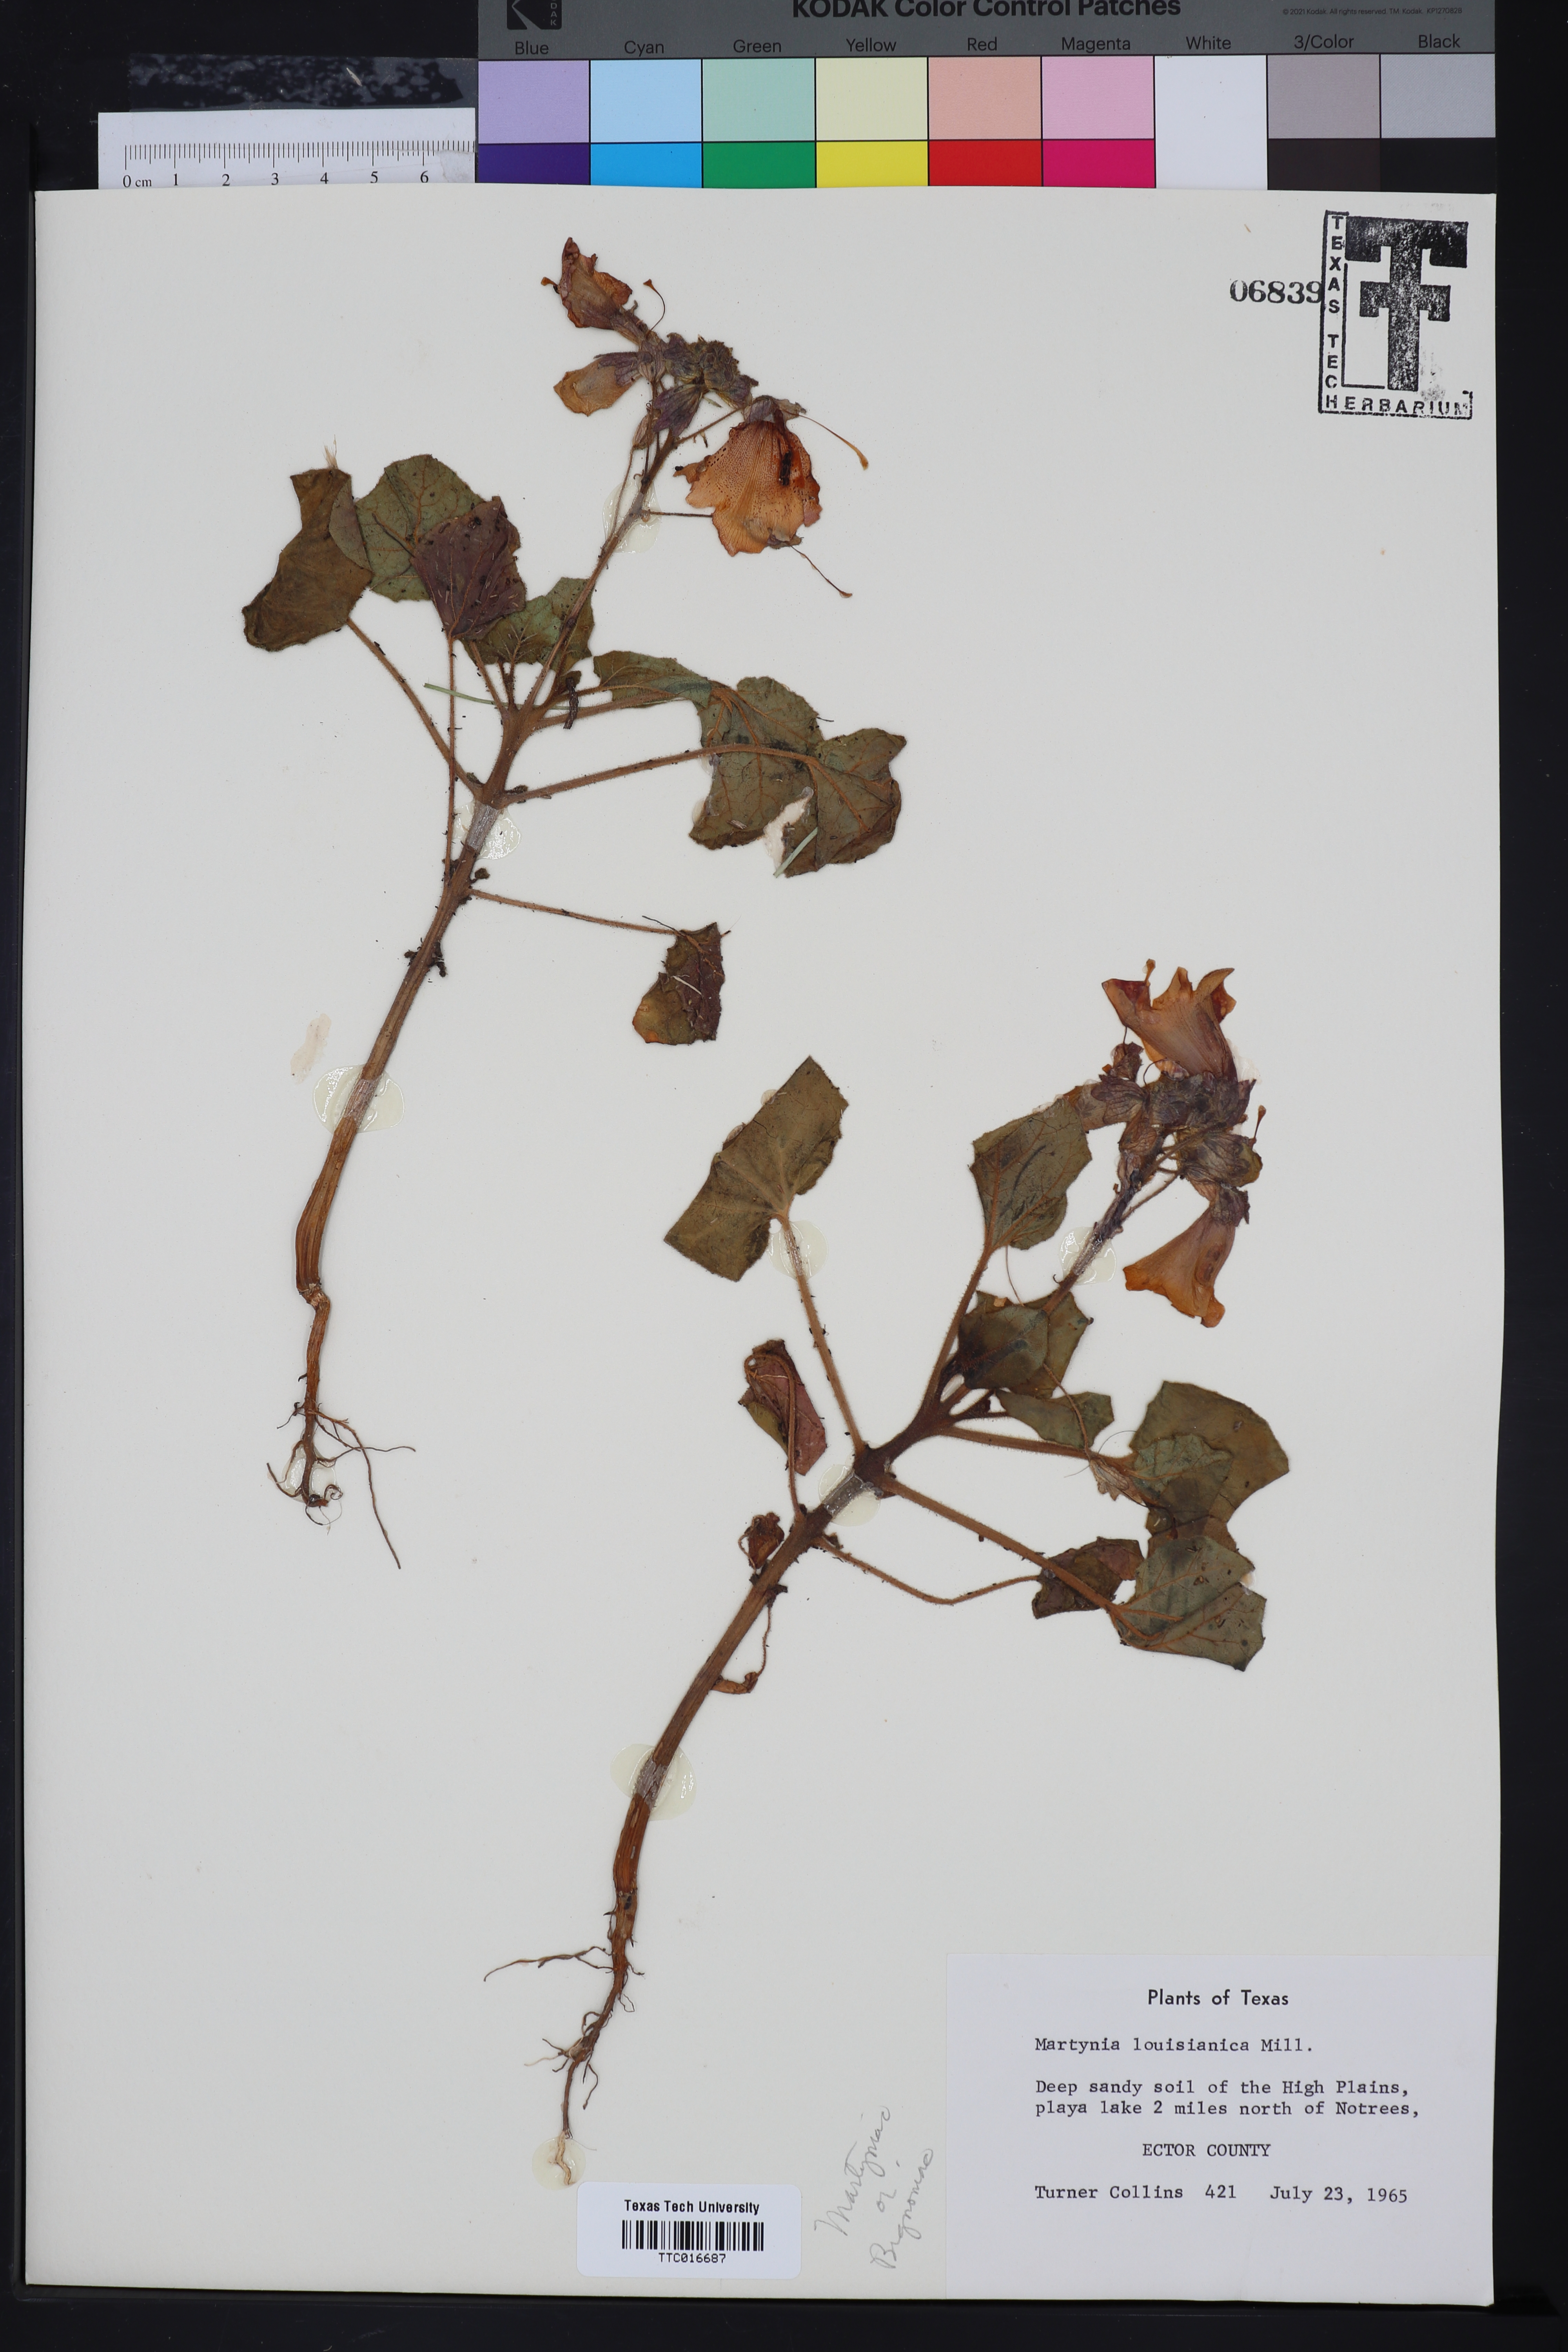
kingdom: Plantae
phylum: Tracheophyta
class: Magnoliopsida
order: Lamiales
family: Martyniaceae
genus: Proboscidea
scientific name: Proboscidea louisianica
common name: Elephant tusks
